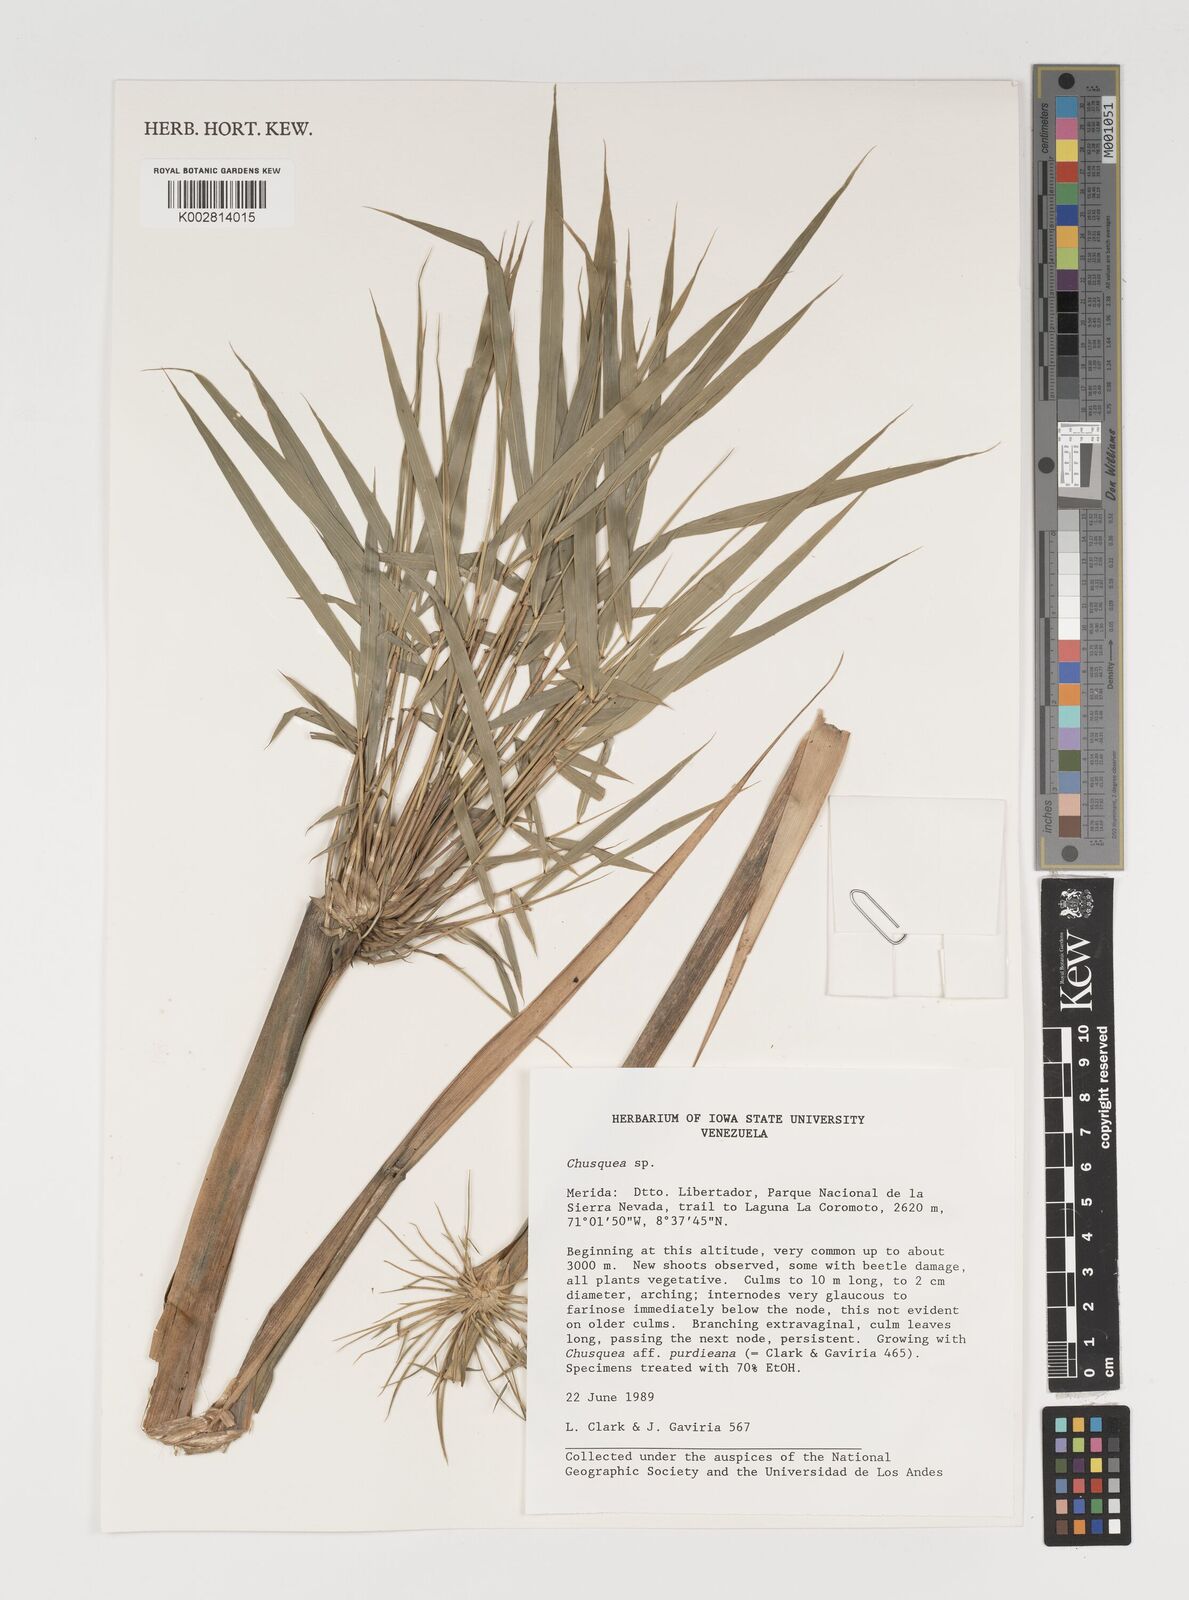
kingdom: Plantae
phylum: Tracheophyta
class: Liliopsida
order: Poales
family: Poaceae
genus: Chusquea
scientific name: Chusquea
